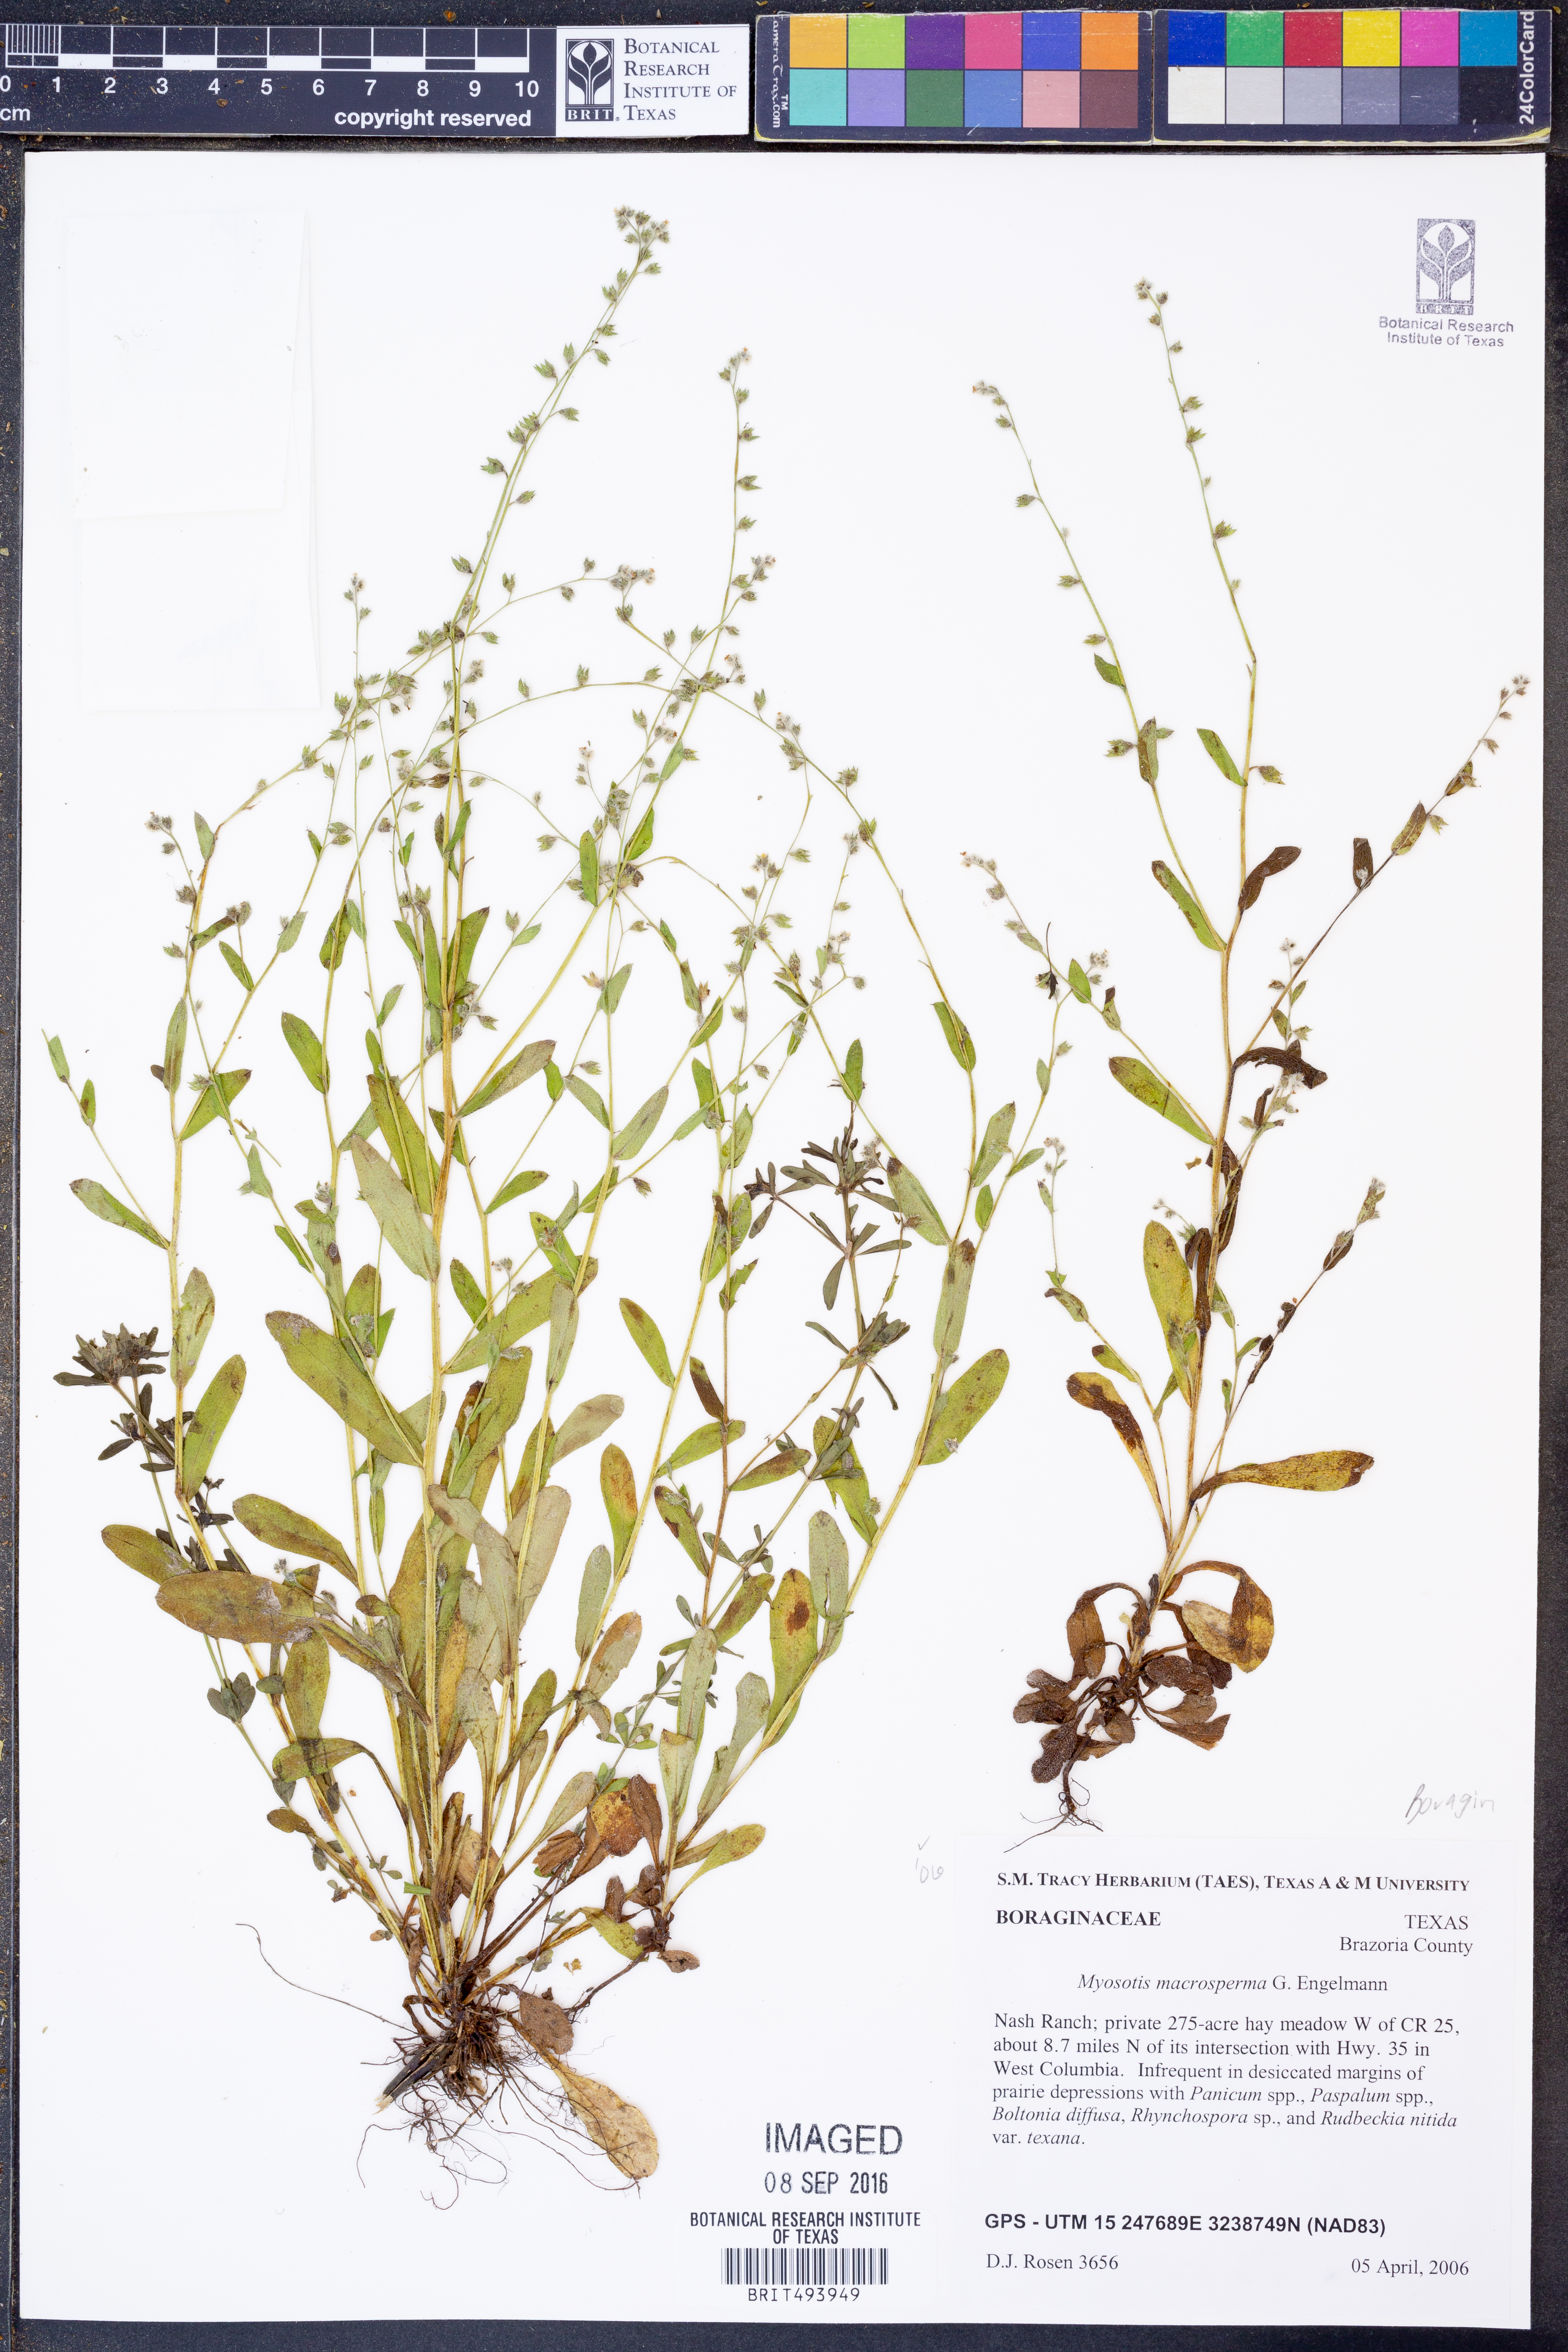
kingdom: Plantae
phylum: Tracheophyta
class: Magnoliopsida
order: Boraginales
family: Boraginaceae
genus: Myosotis
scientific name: Myosotis macrosperma
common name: Large-seed forget-me-not
